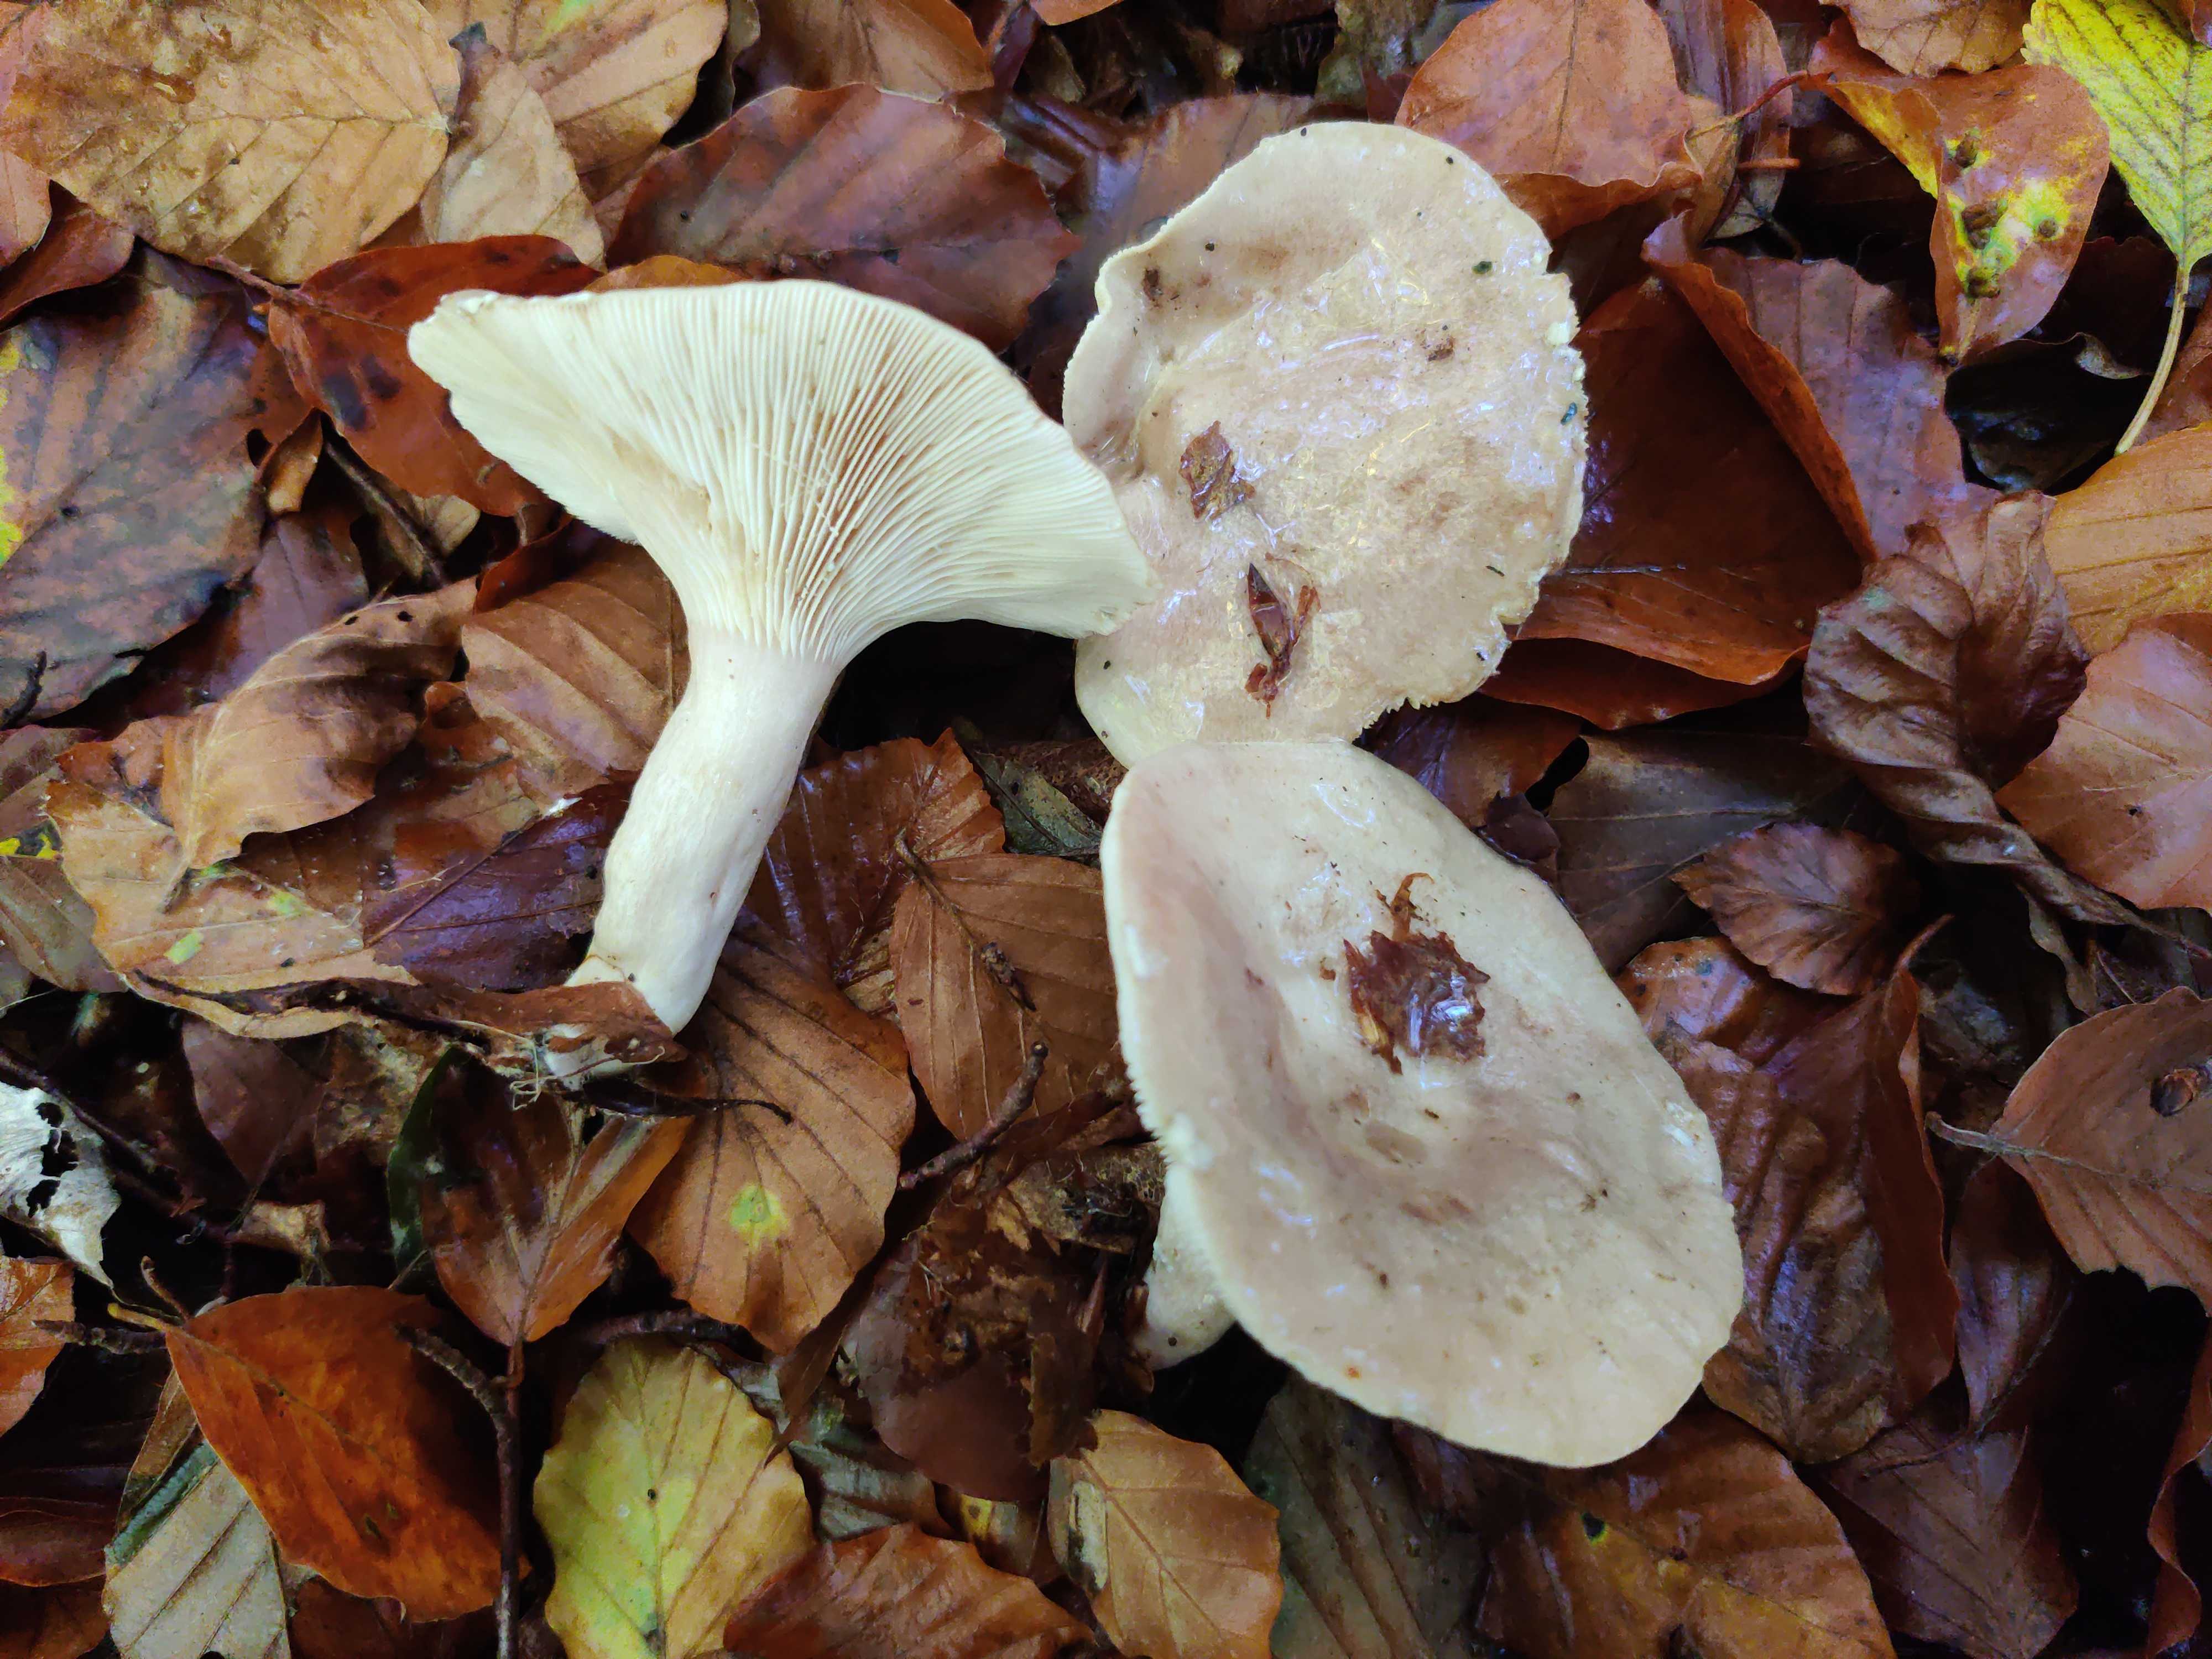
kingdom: Fungi
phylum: Basidiomycota
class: Agaricomycetes
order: Russulales
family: Russulaceae
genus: Lactarius
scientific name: Lactarius blennius
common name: dråbeplettet mælkehat
